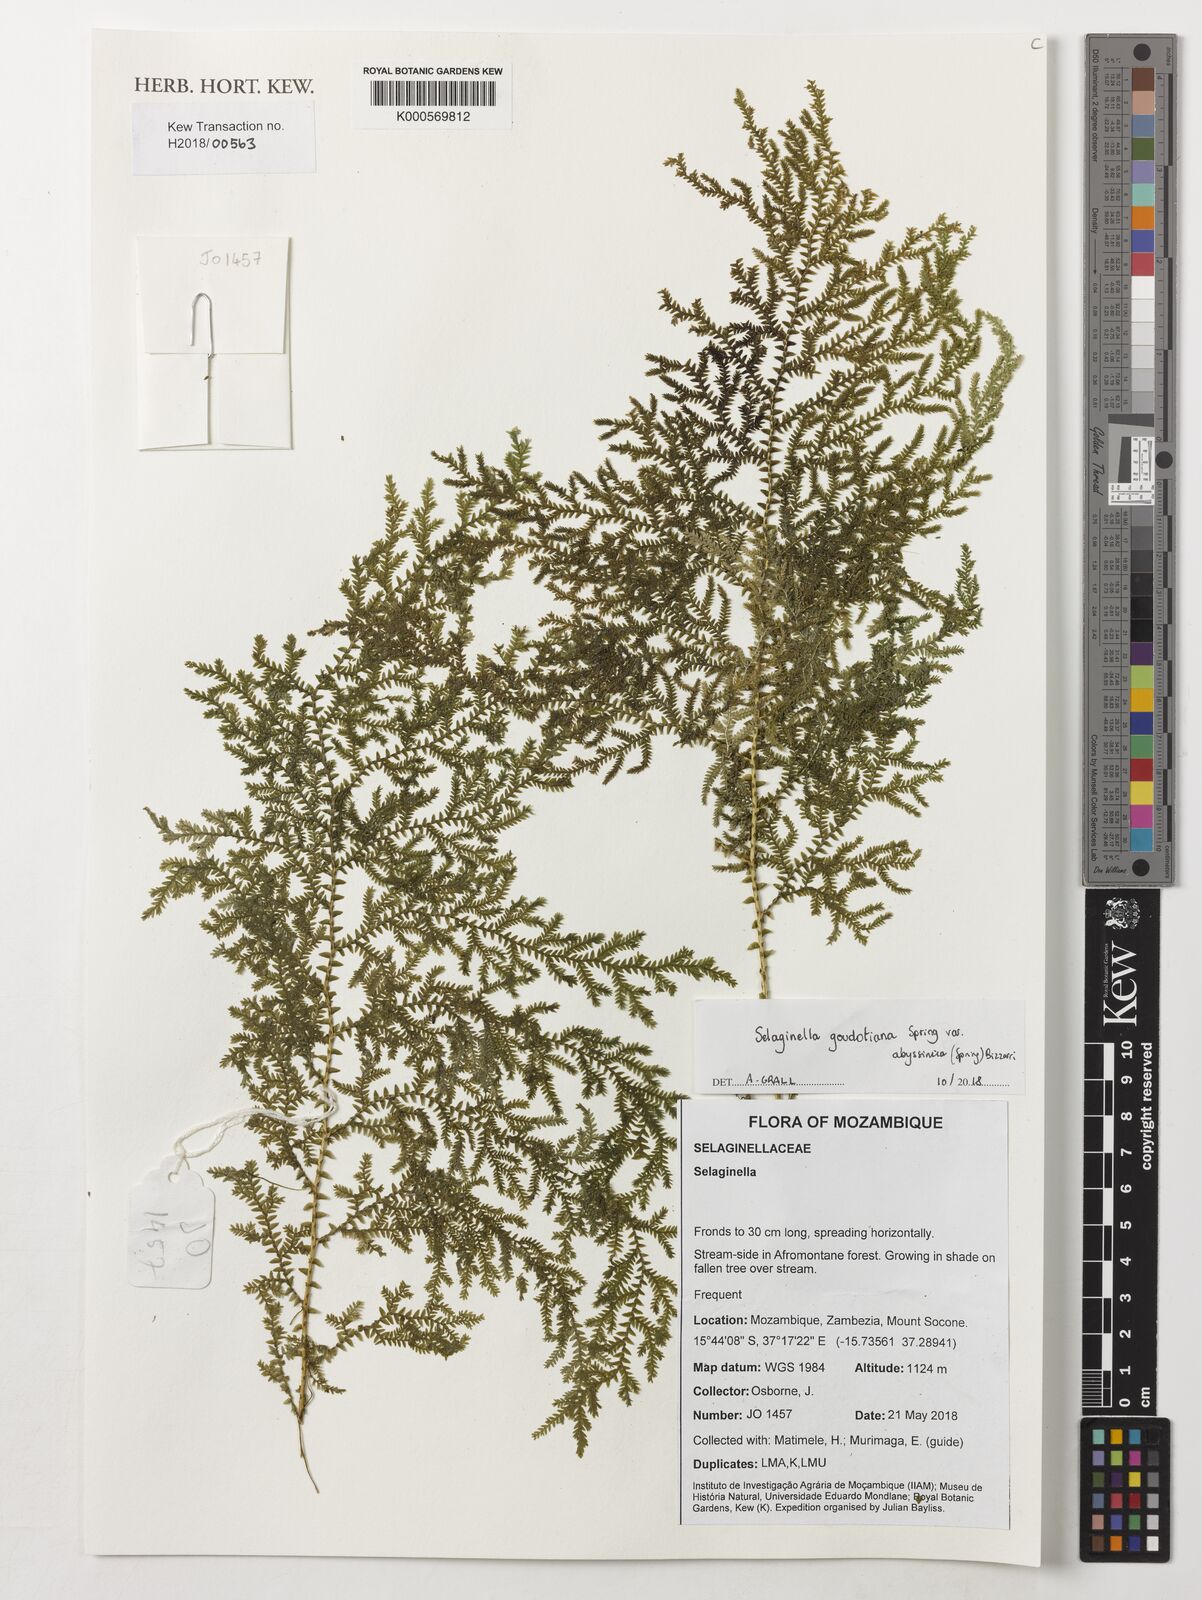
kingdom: Plantae
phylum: Tracheophyta
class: Lycopodiopsida
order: Selaginellales
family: Selaginellaceae
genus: Selaginella
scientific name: Selaginella goudotiana
